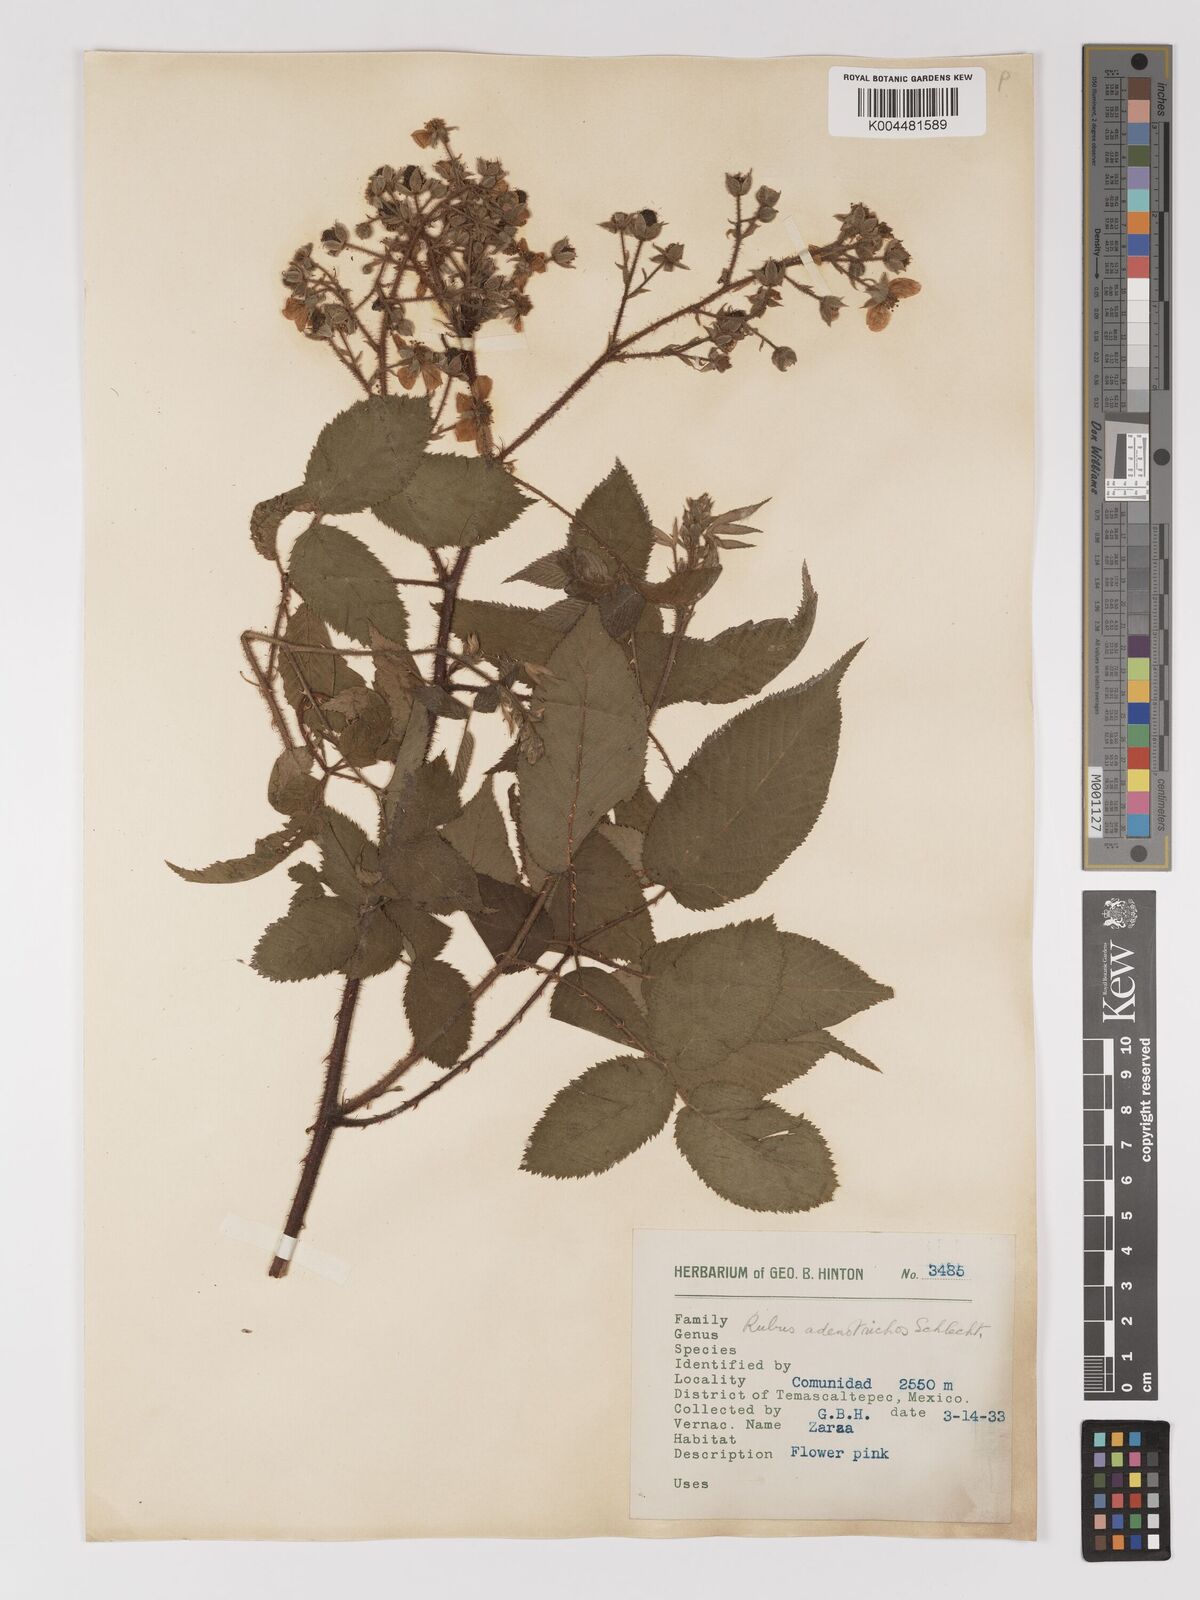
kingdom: Plantae
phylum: Tracheophyta
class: Magnoliopsida
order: Rosales
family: Rosaceae
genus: Rubus
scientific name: Rubus adenotrichos
